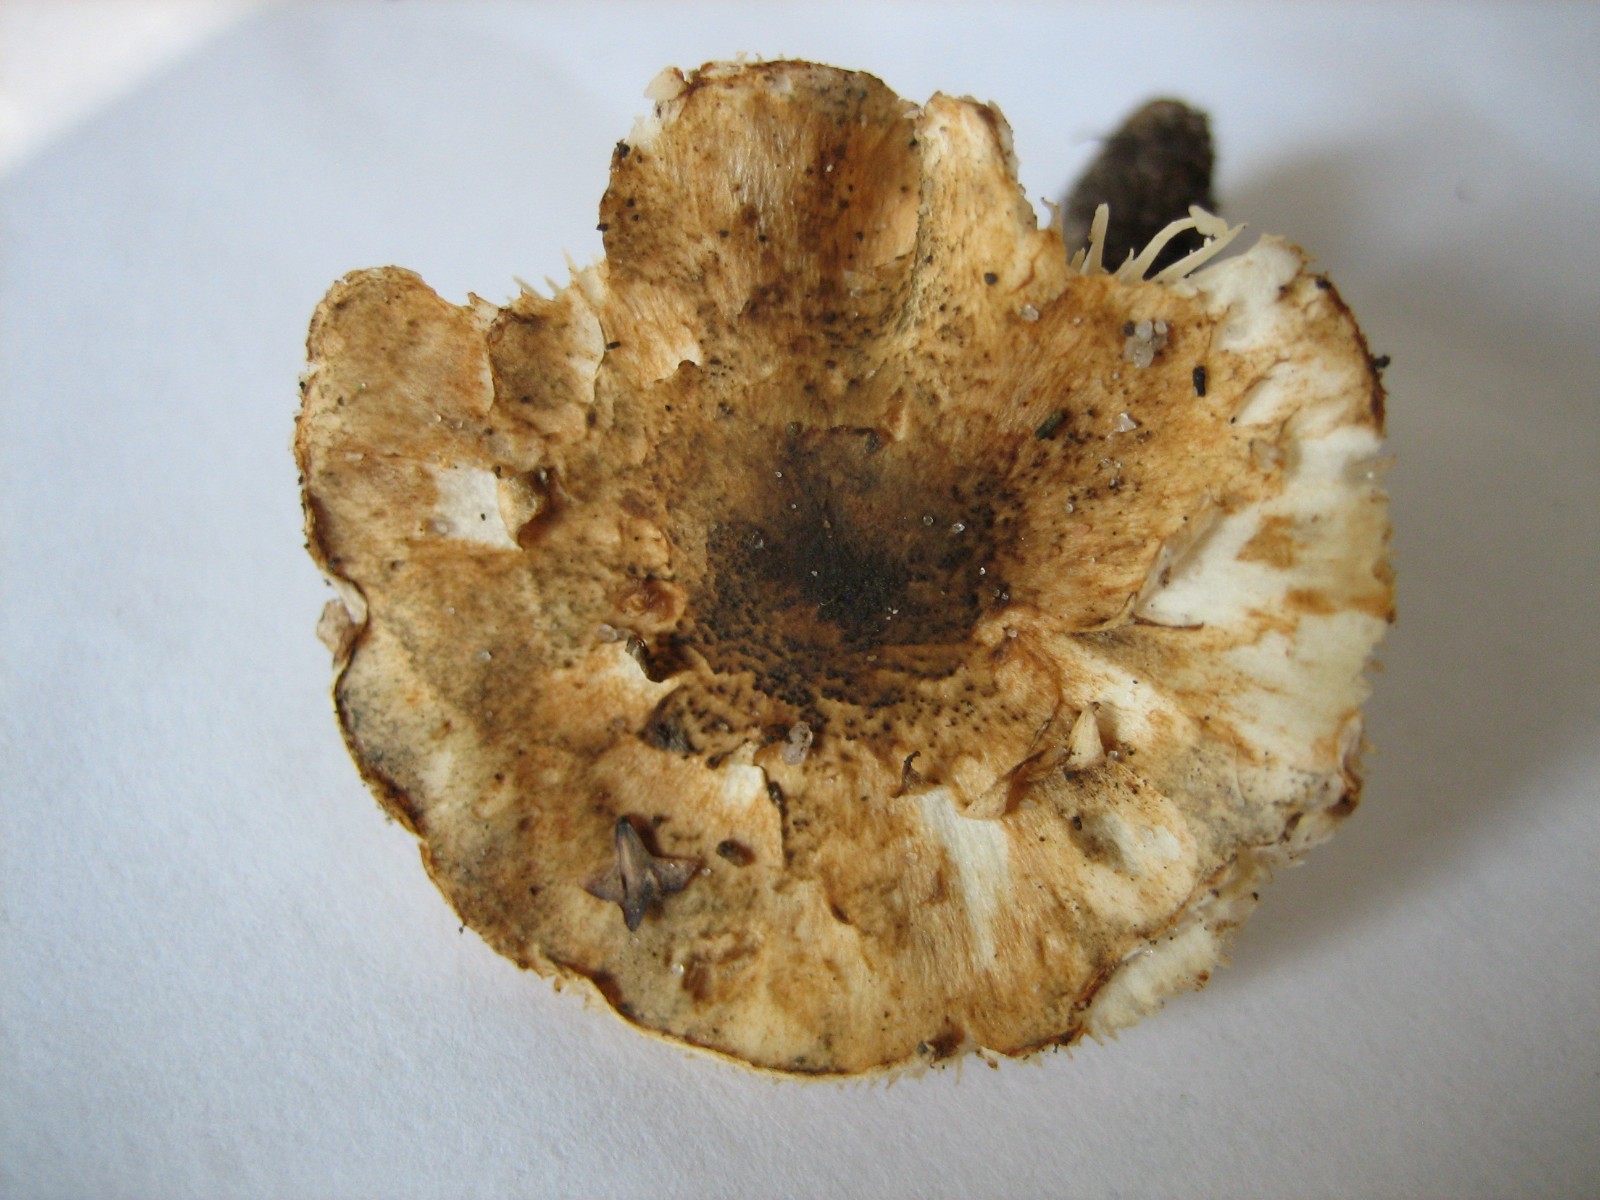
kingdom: Fungi
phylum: Basidiomycota
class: Agaricomycetes
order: Agaricales
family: Agaricaceae
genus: Lepiota
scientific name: Lepiota
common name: parasolhat
